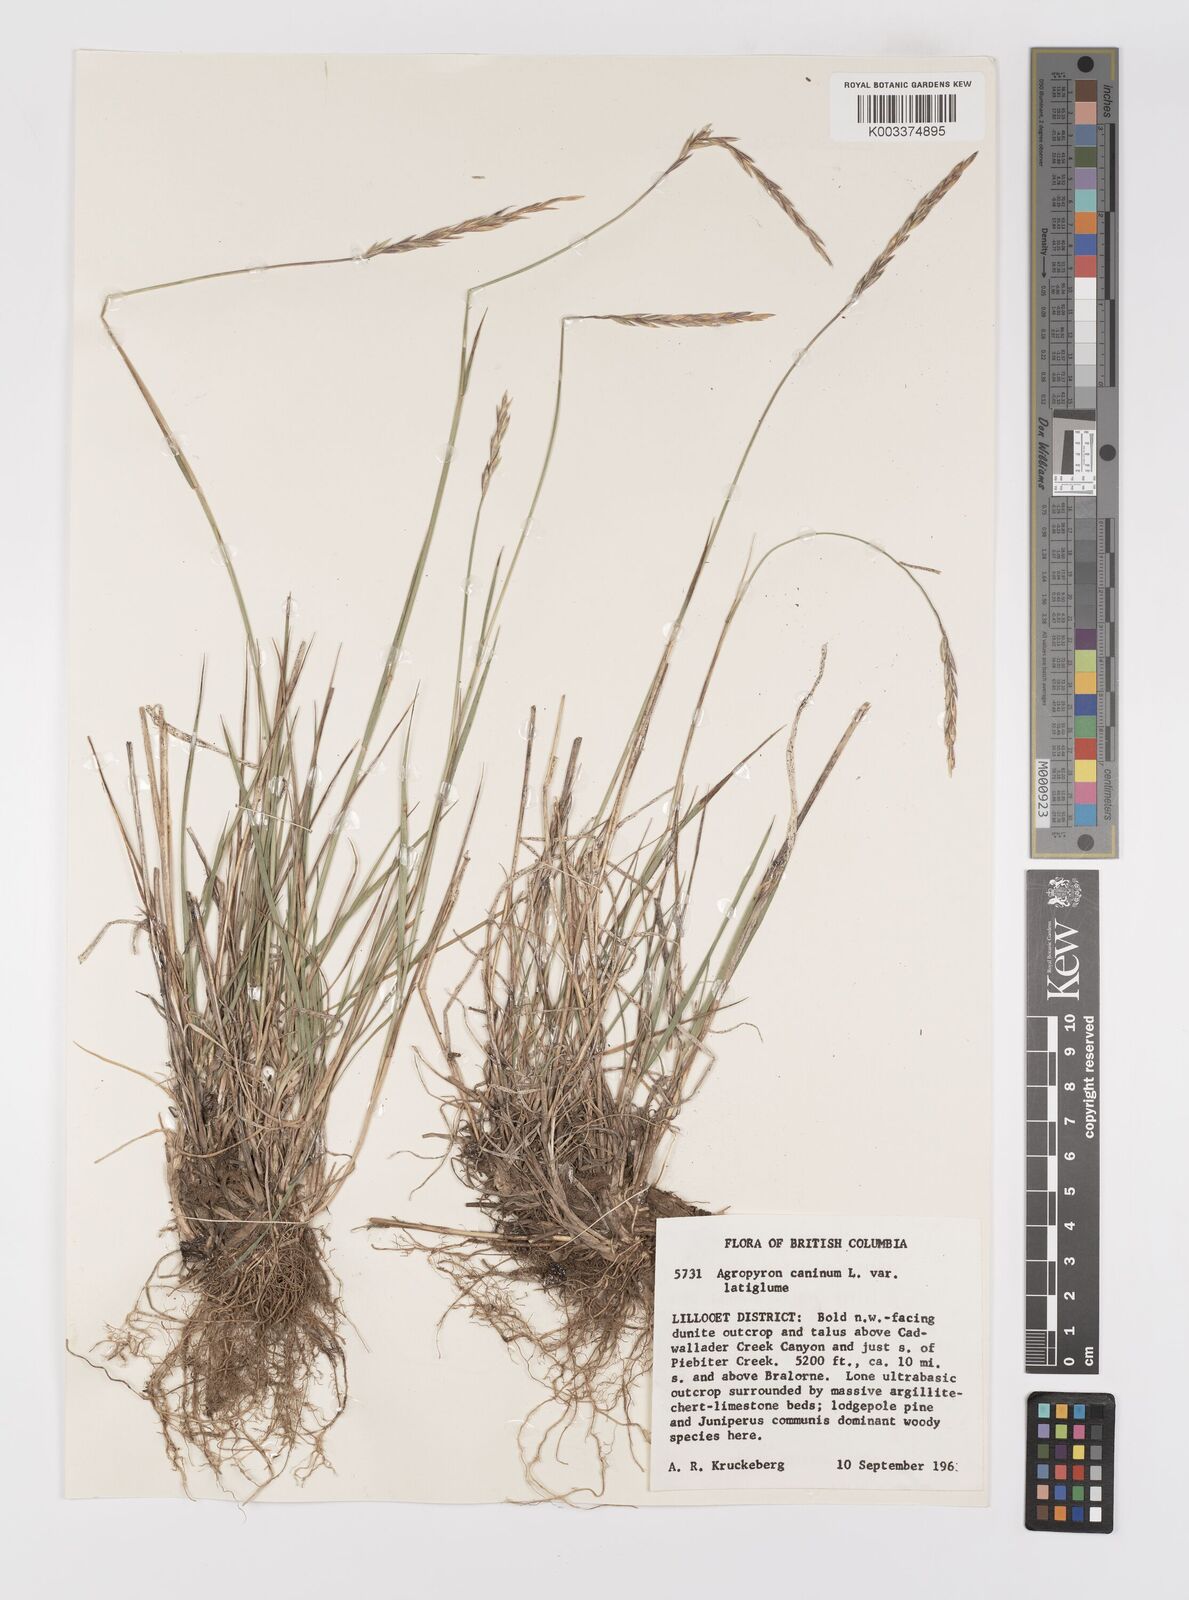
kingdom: Plantae
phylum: Tracheophyta
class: Liliopsida
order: Poales
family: Poaceae
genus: Elymus
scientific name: Elymus violaceus
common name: Arctic wheatgrass
